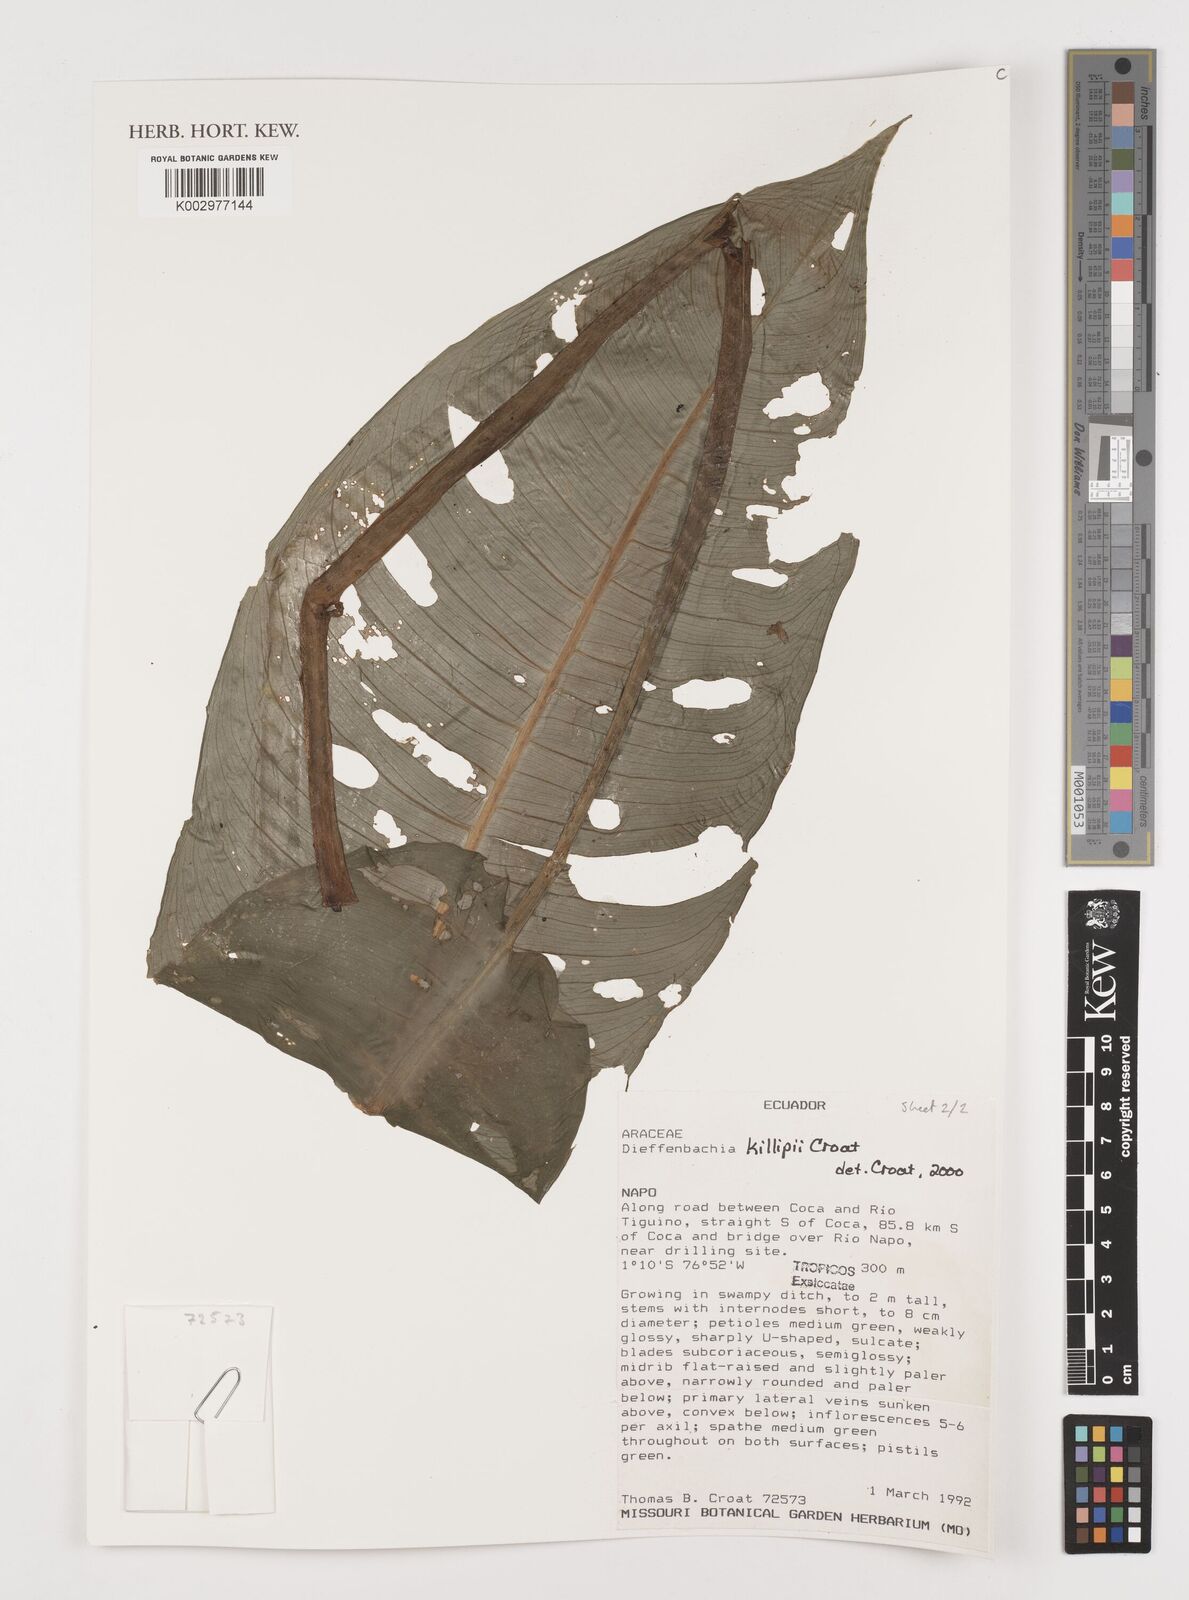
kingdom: Plantae
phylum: Tracheophyta
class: Liliopsida
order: Alismatales
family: Araceae
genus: Dieffenbachia
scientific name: Dieffenbachia killipii
